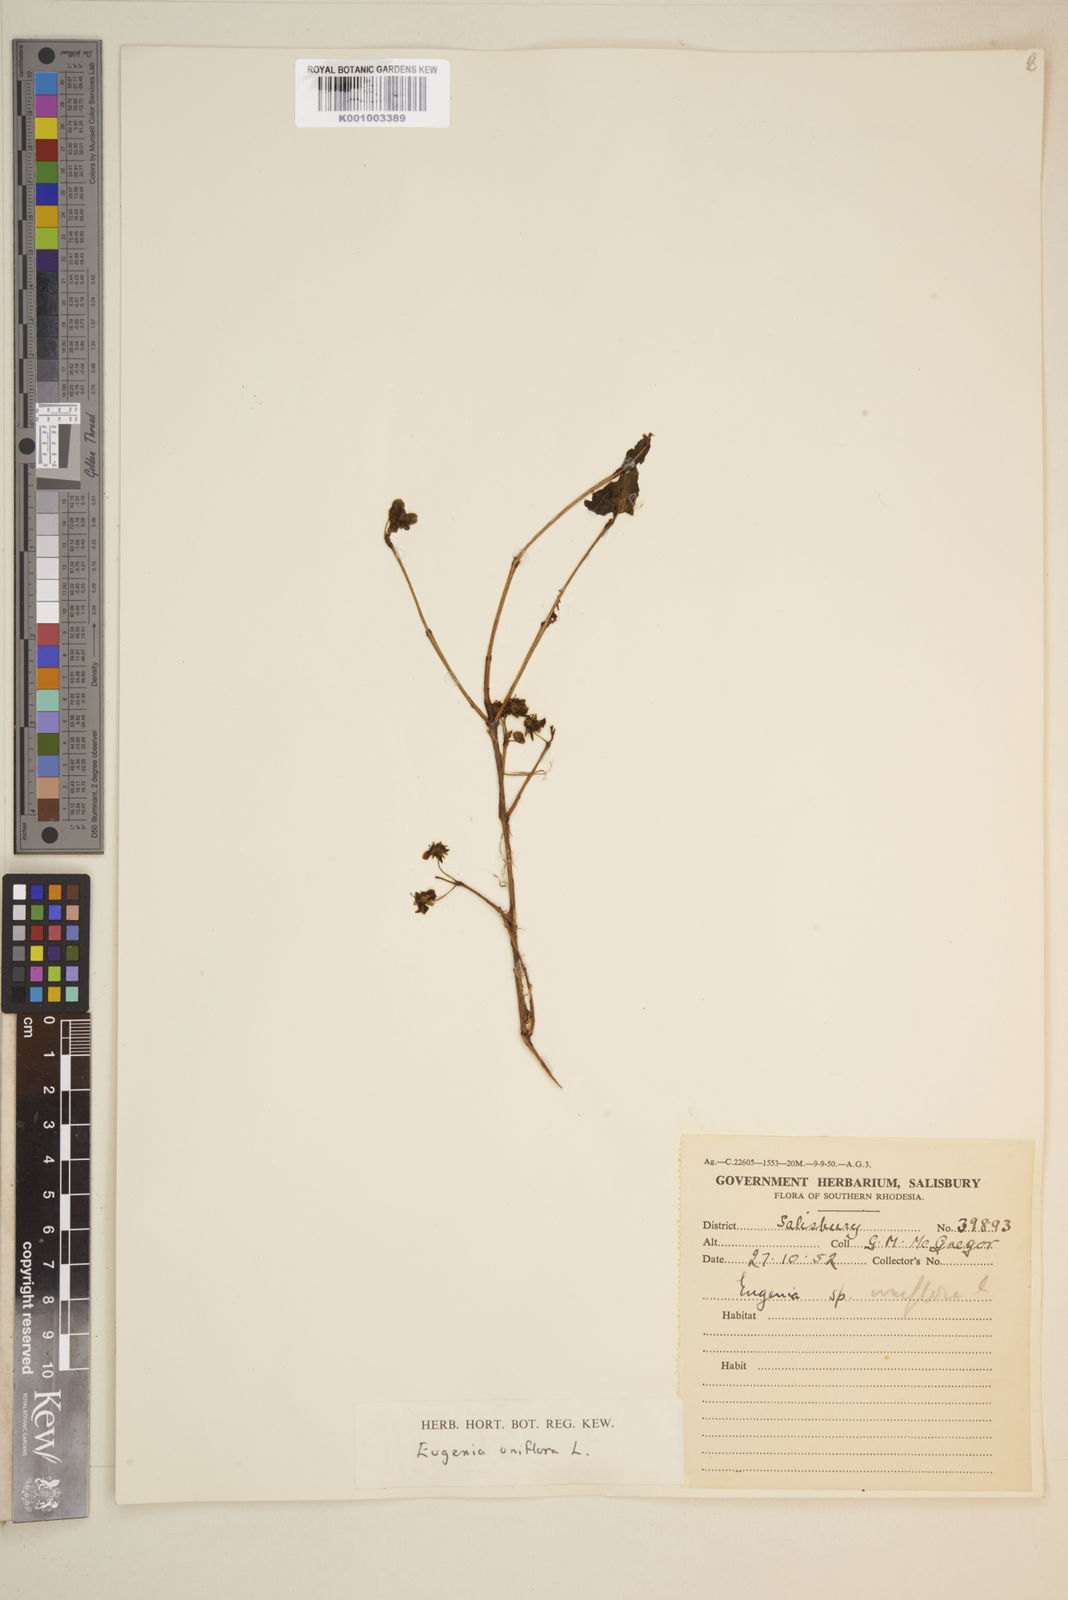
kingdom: Plantae
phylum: Tracheophyta
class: Magnoliopsida
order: Myrtales
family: Myrtaceae
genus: Eugenia
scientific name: Eugenia uniflora
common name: Surinam cherry
